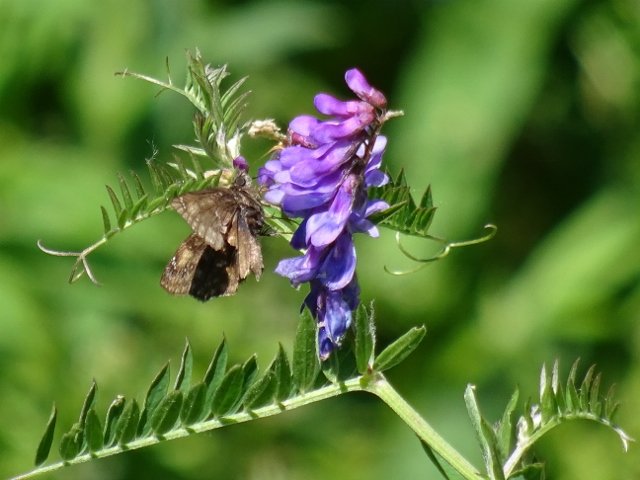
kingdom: Animalia
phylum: Arthropoda
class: Insecta
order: Lepidoptera
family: Hesperiidae
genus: Gesta
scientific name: Gesta
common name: Juvenal's Duskywing
